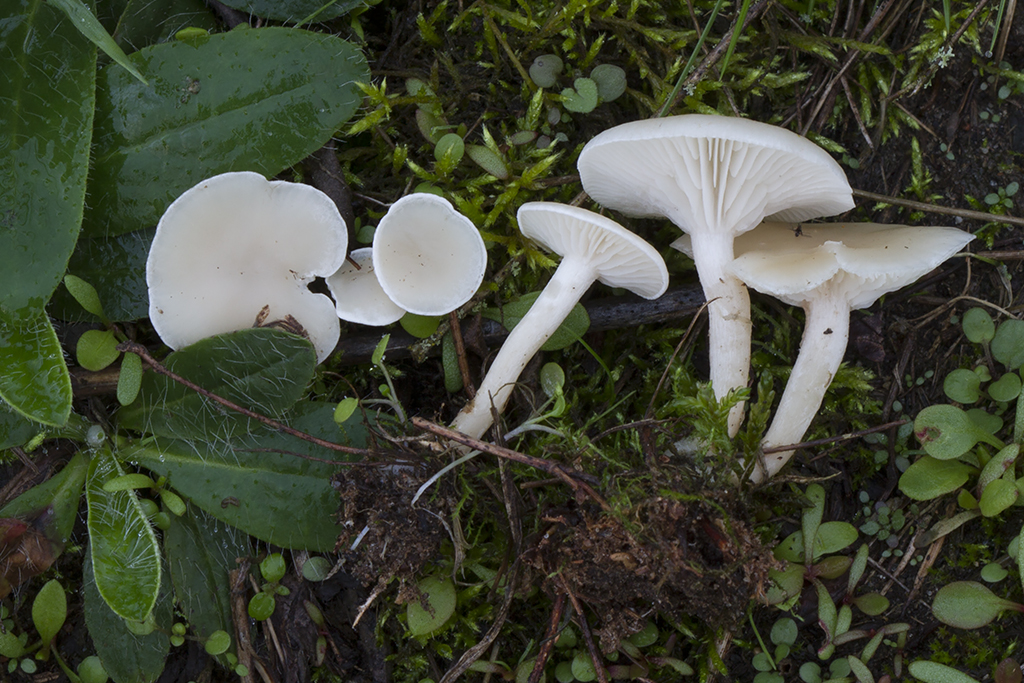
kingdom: Fungi
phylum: Basidiomycota
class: Agaricomycetes
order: Agaricales
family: Tricholomataceae
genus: Clitocybe
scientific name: Clitocybe agrestis
